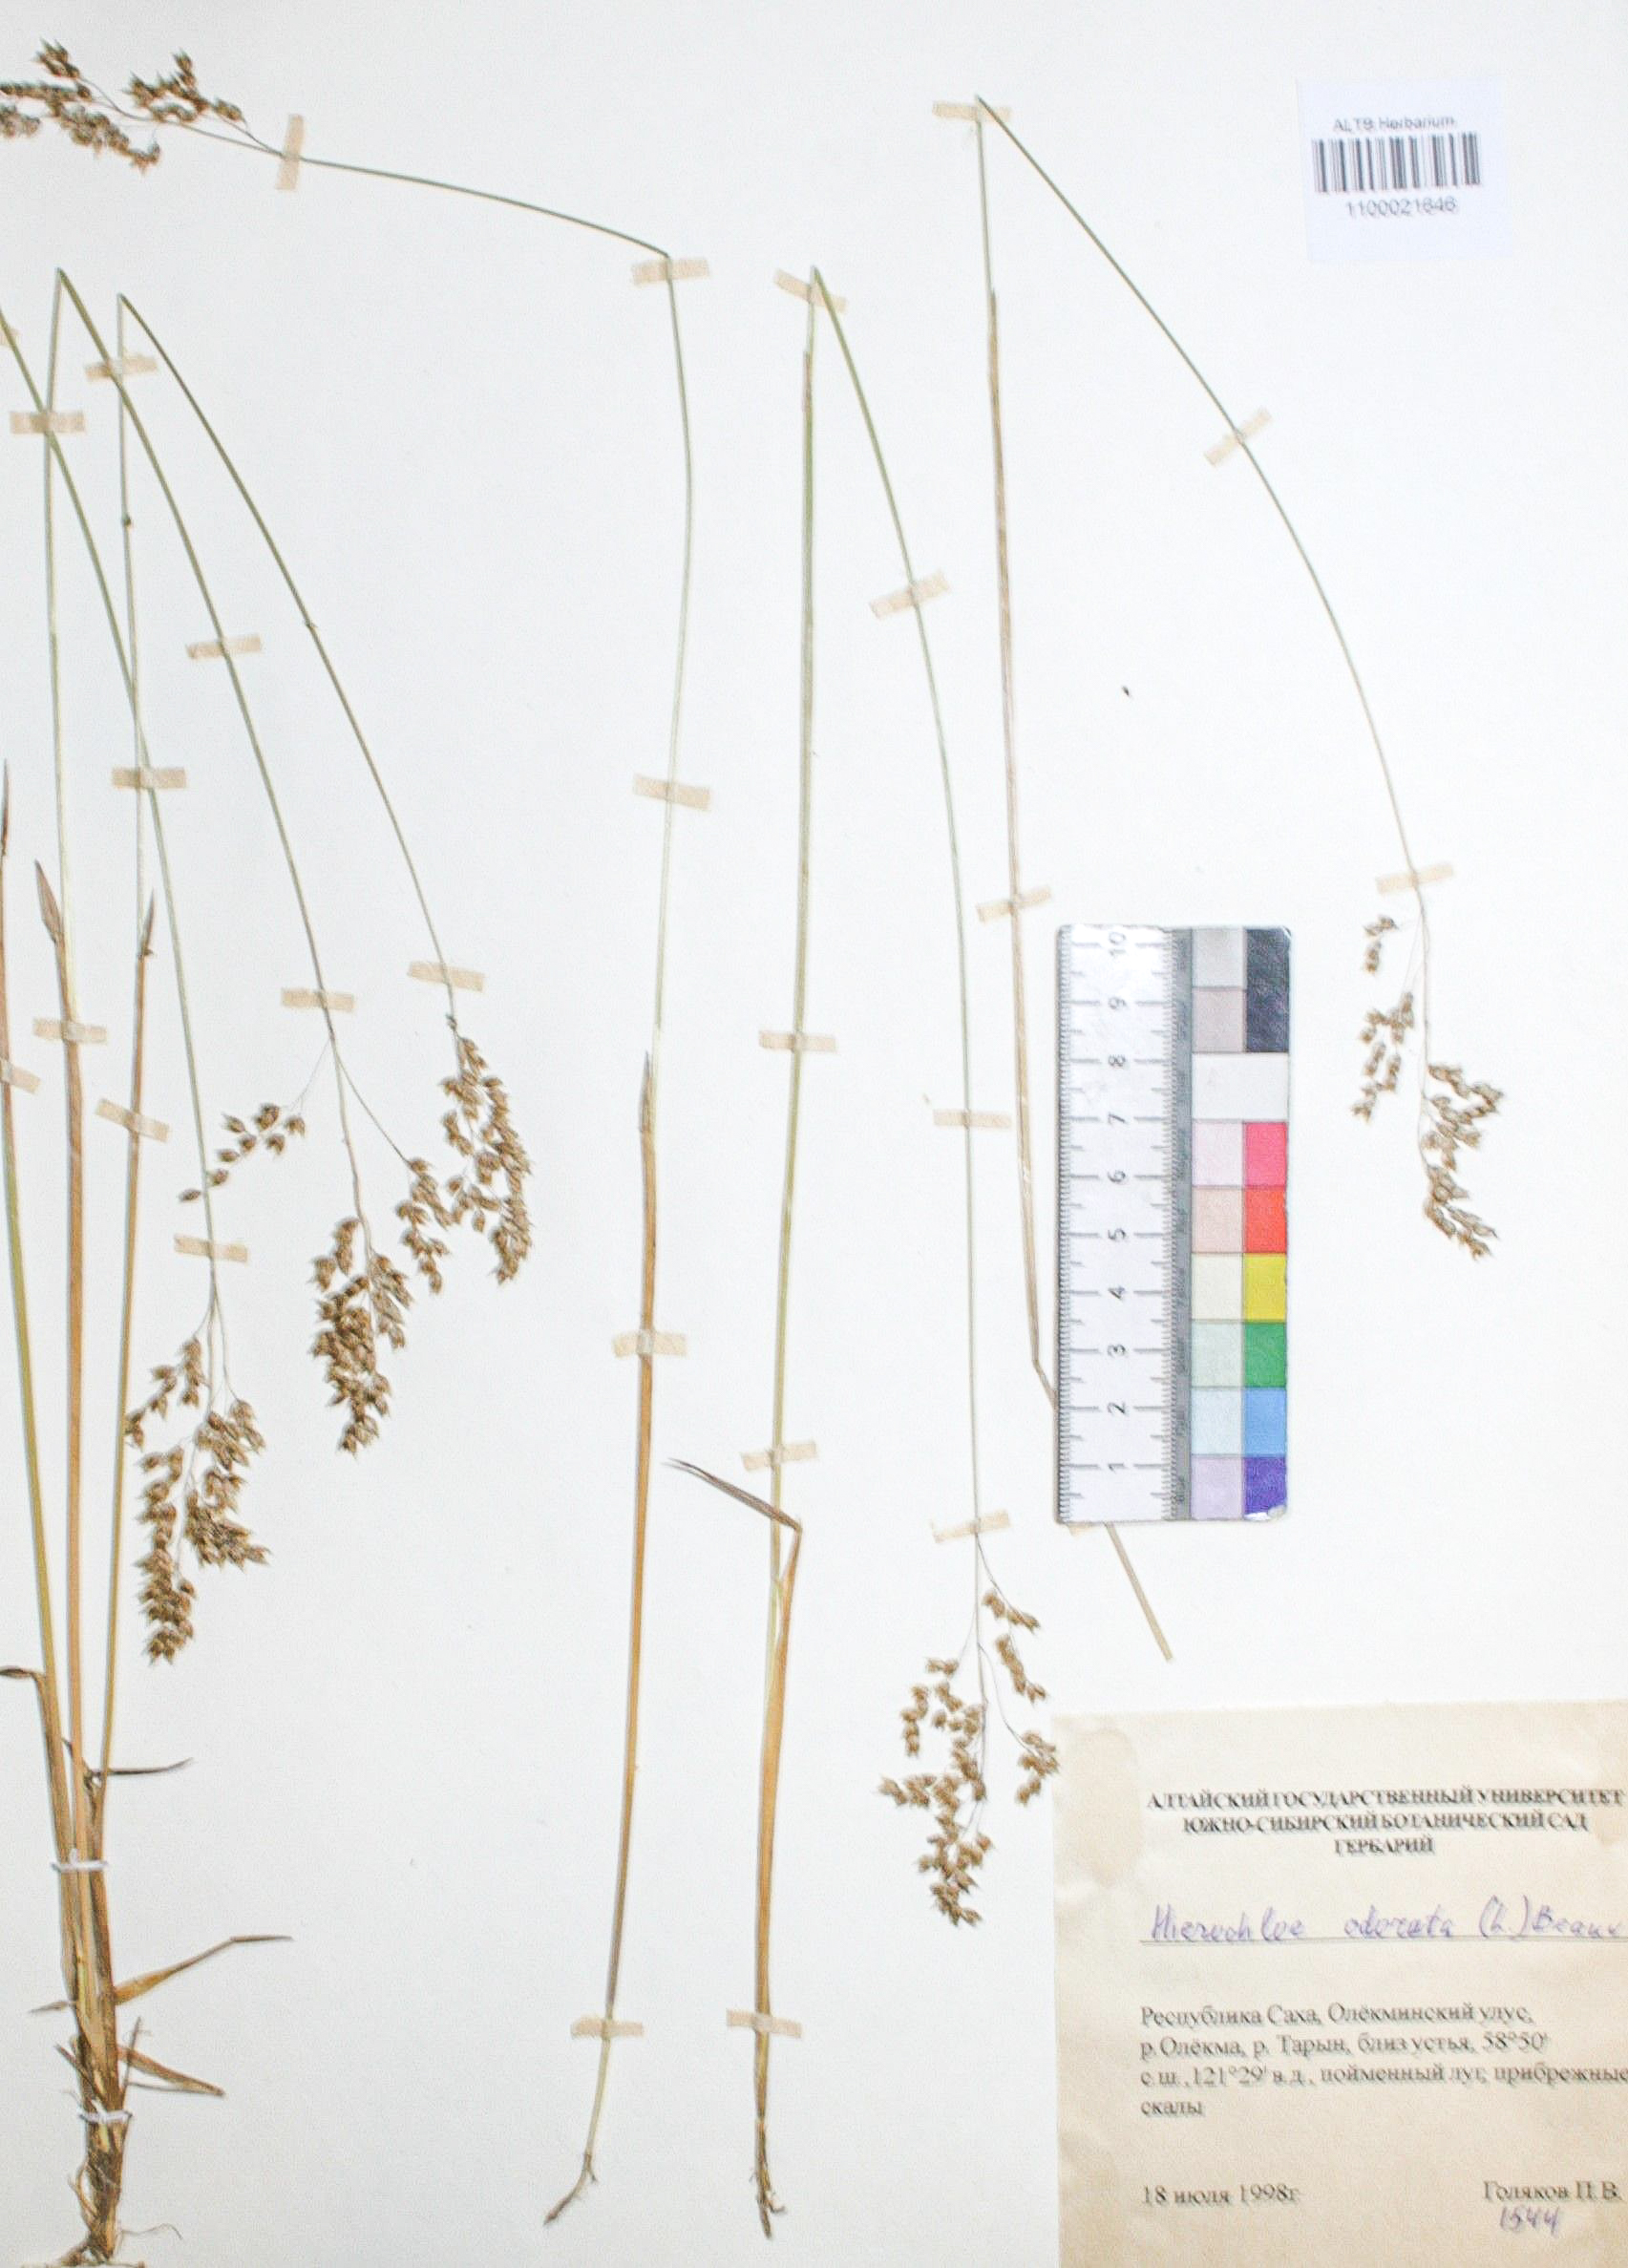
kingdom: Plantae
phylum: Tracheophyta
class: Liliopsida
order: Poales
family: Poaceae
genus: Anthoxanthum
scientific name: Anthoxanthum nitens
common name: Holy grass
